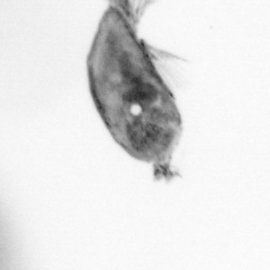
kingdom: Animalia
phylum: Arthropoda
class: Maxillopoda
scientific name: Maxillopoda
